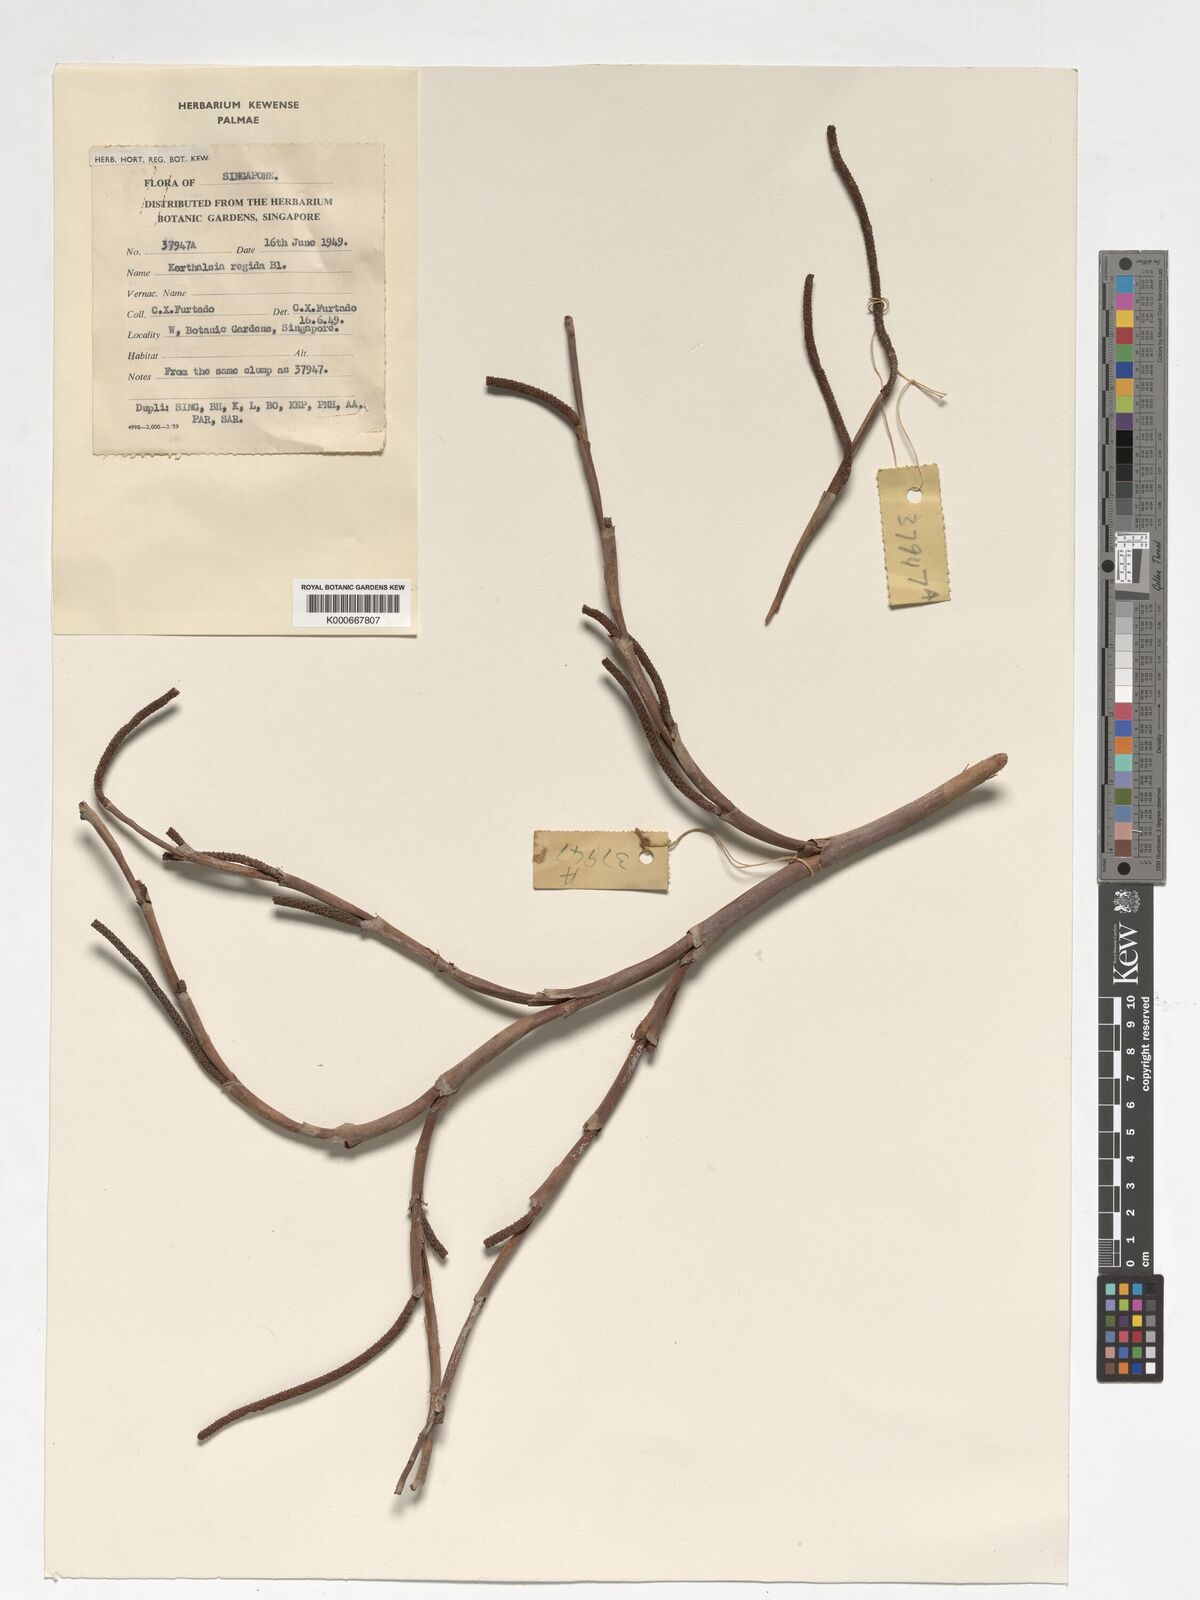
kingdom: Plantae
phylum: Tracheophyta
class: Liliopsida
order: Arecales
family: Arecaceae
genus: Korthalsia
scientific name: Korthalsia rigida
